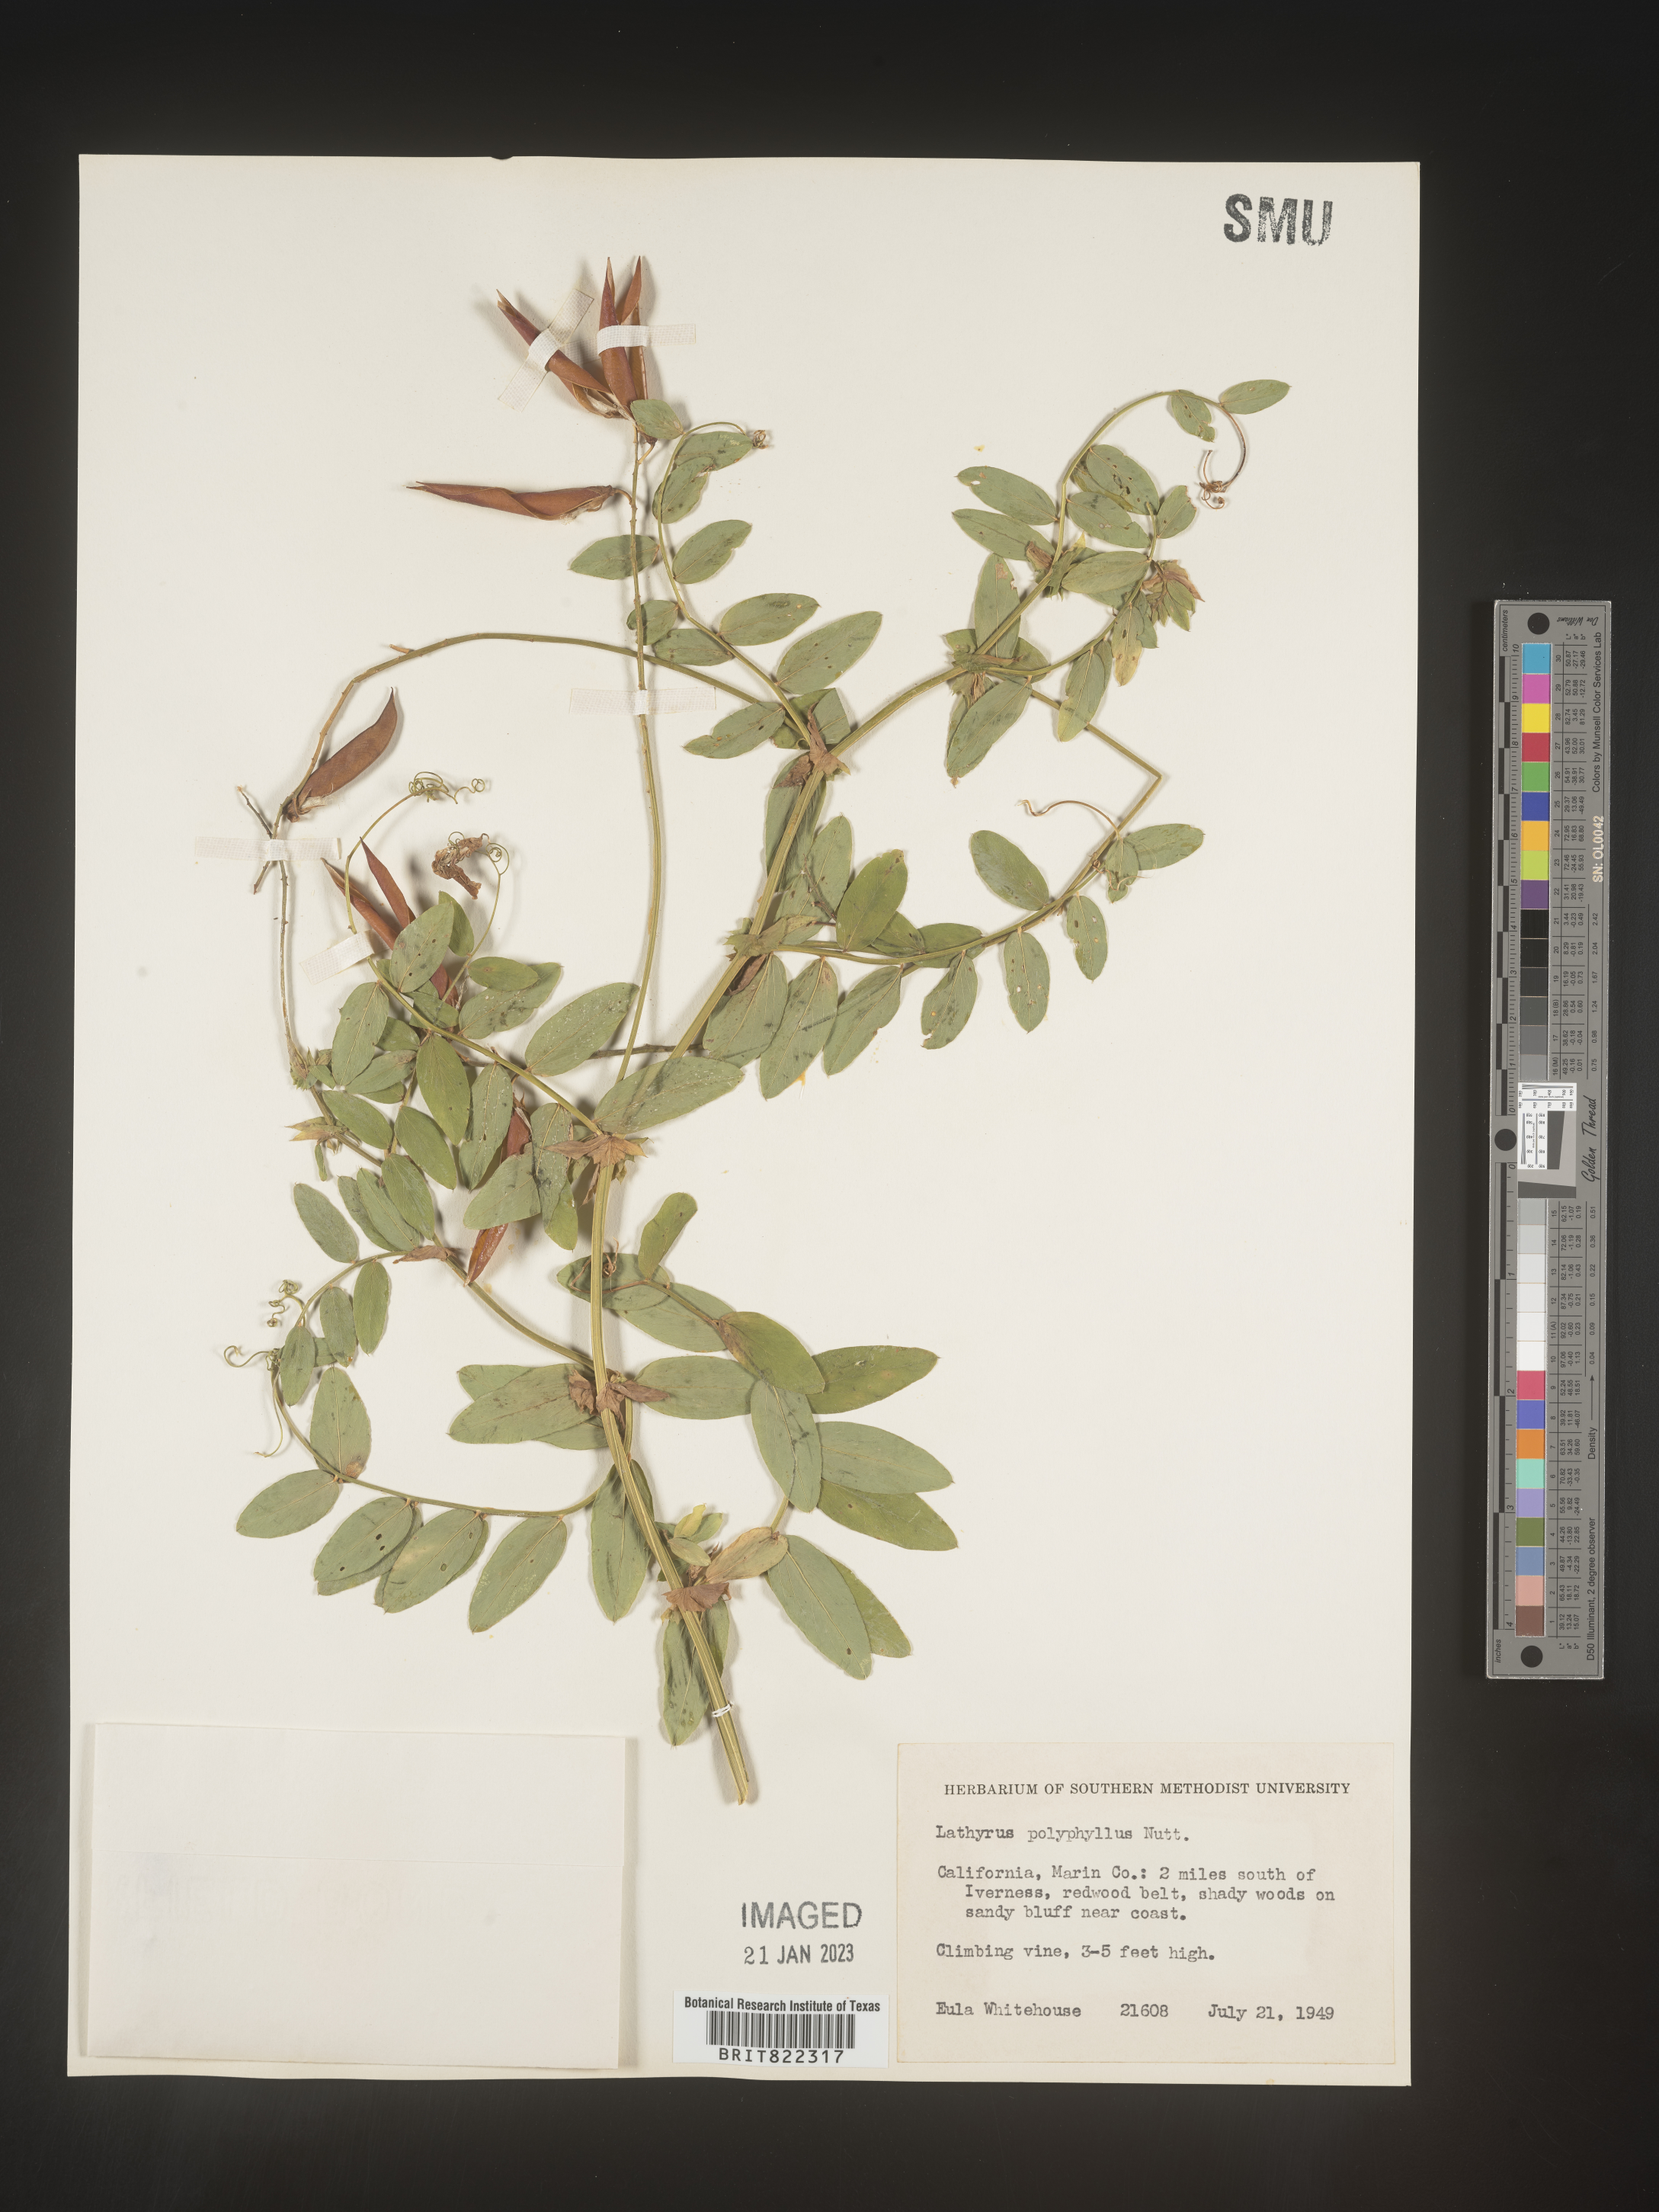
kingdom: Plantae
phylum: Tracheophyta
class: Magnoliopsida
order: Fabales
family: Fabaceae
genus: Lathyrus
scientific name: Lathyrus
